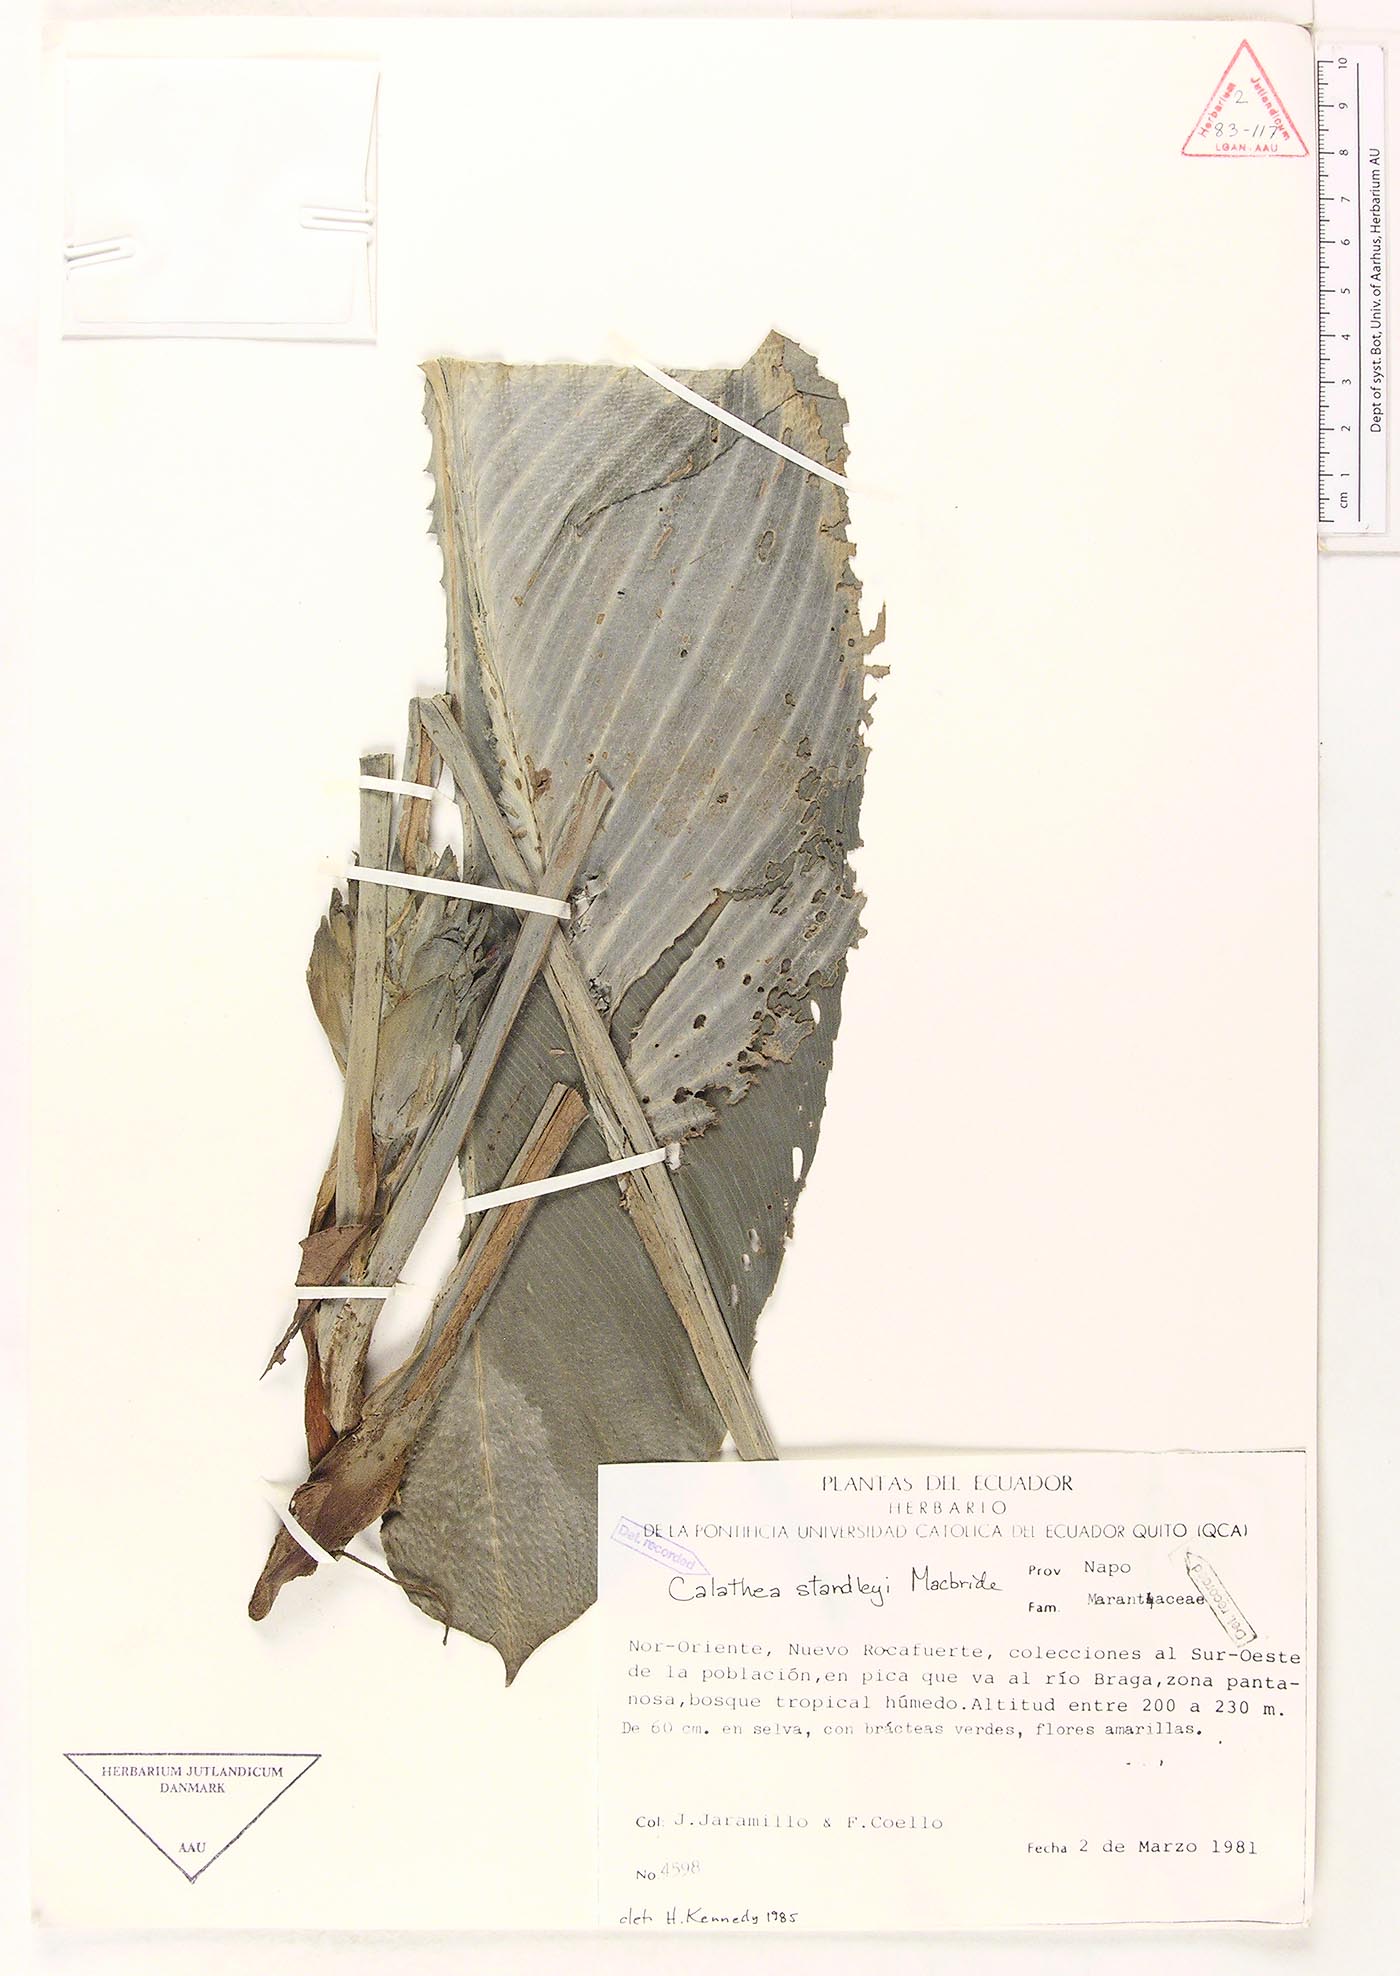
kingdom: Plantae
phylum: Tracheophyta
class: Liliopsida
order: Zingiberales
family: Marantaceae
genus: Goeppertia
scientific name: Goeppertia standleyi
